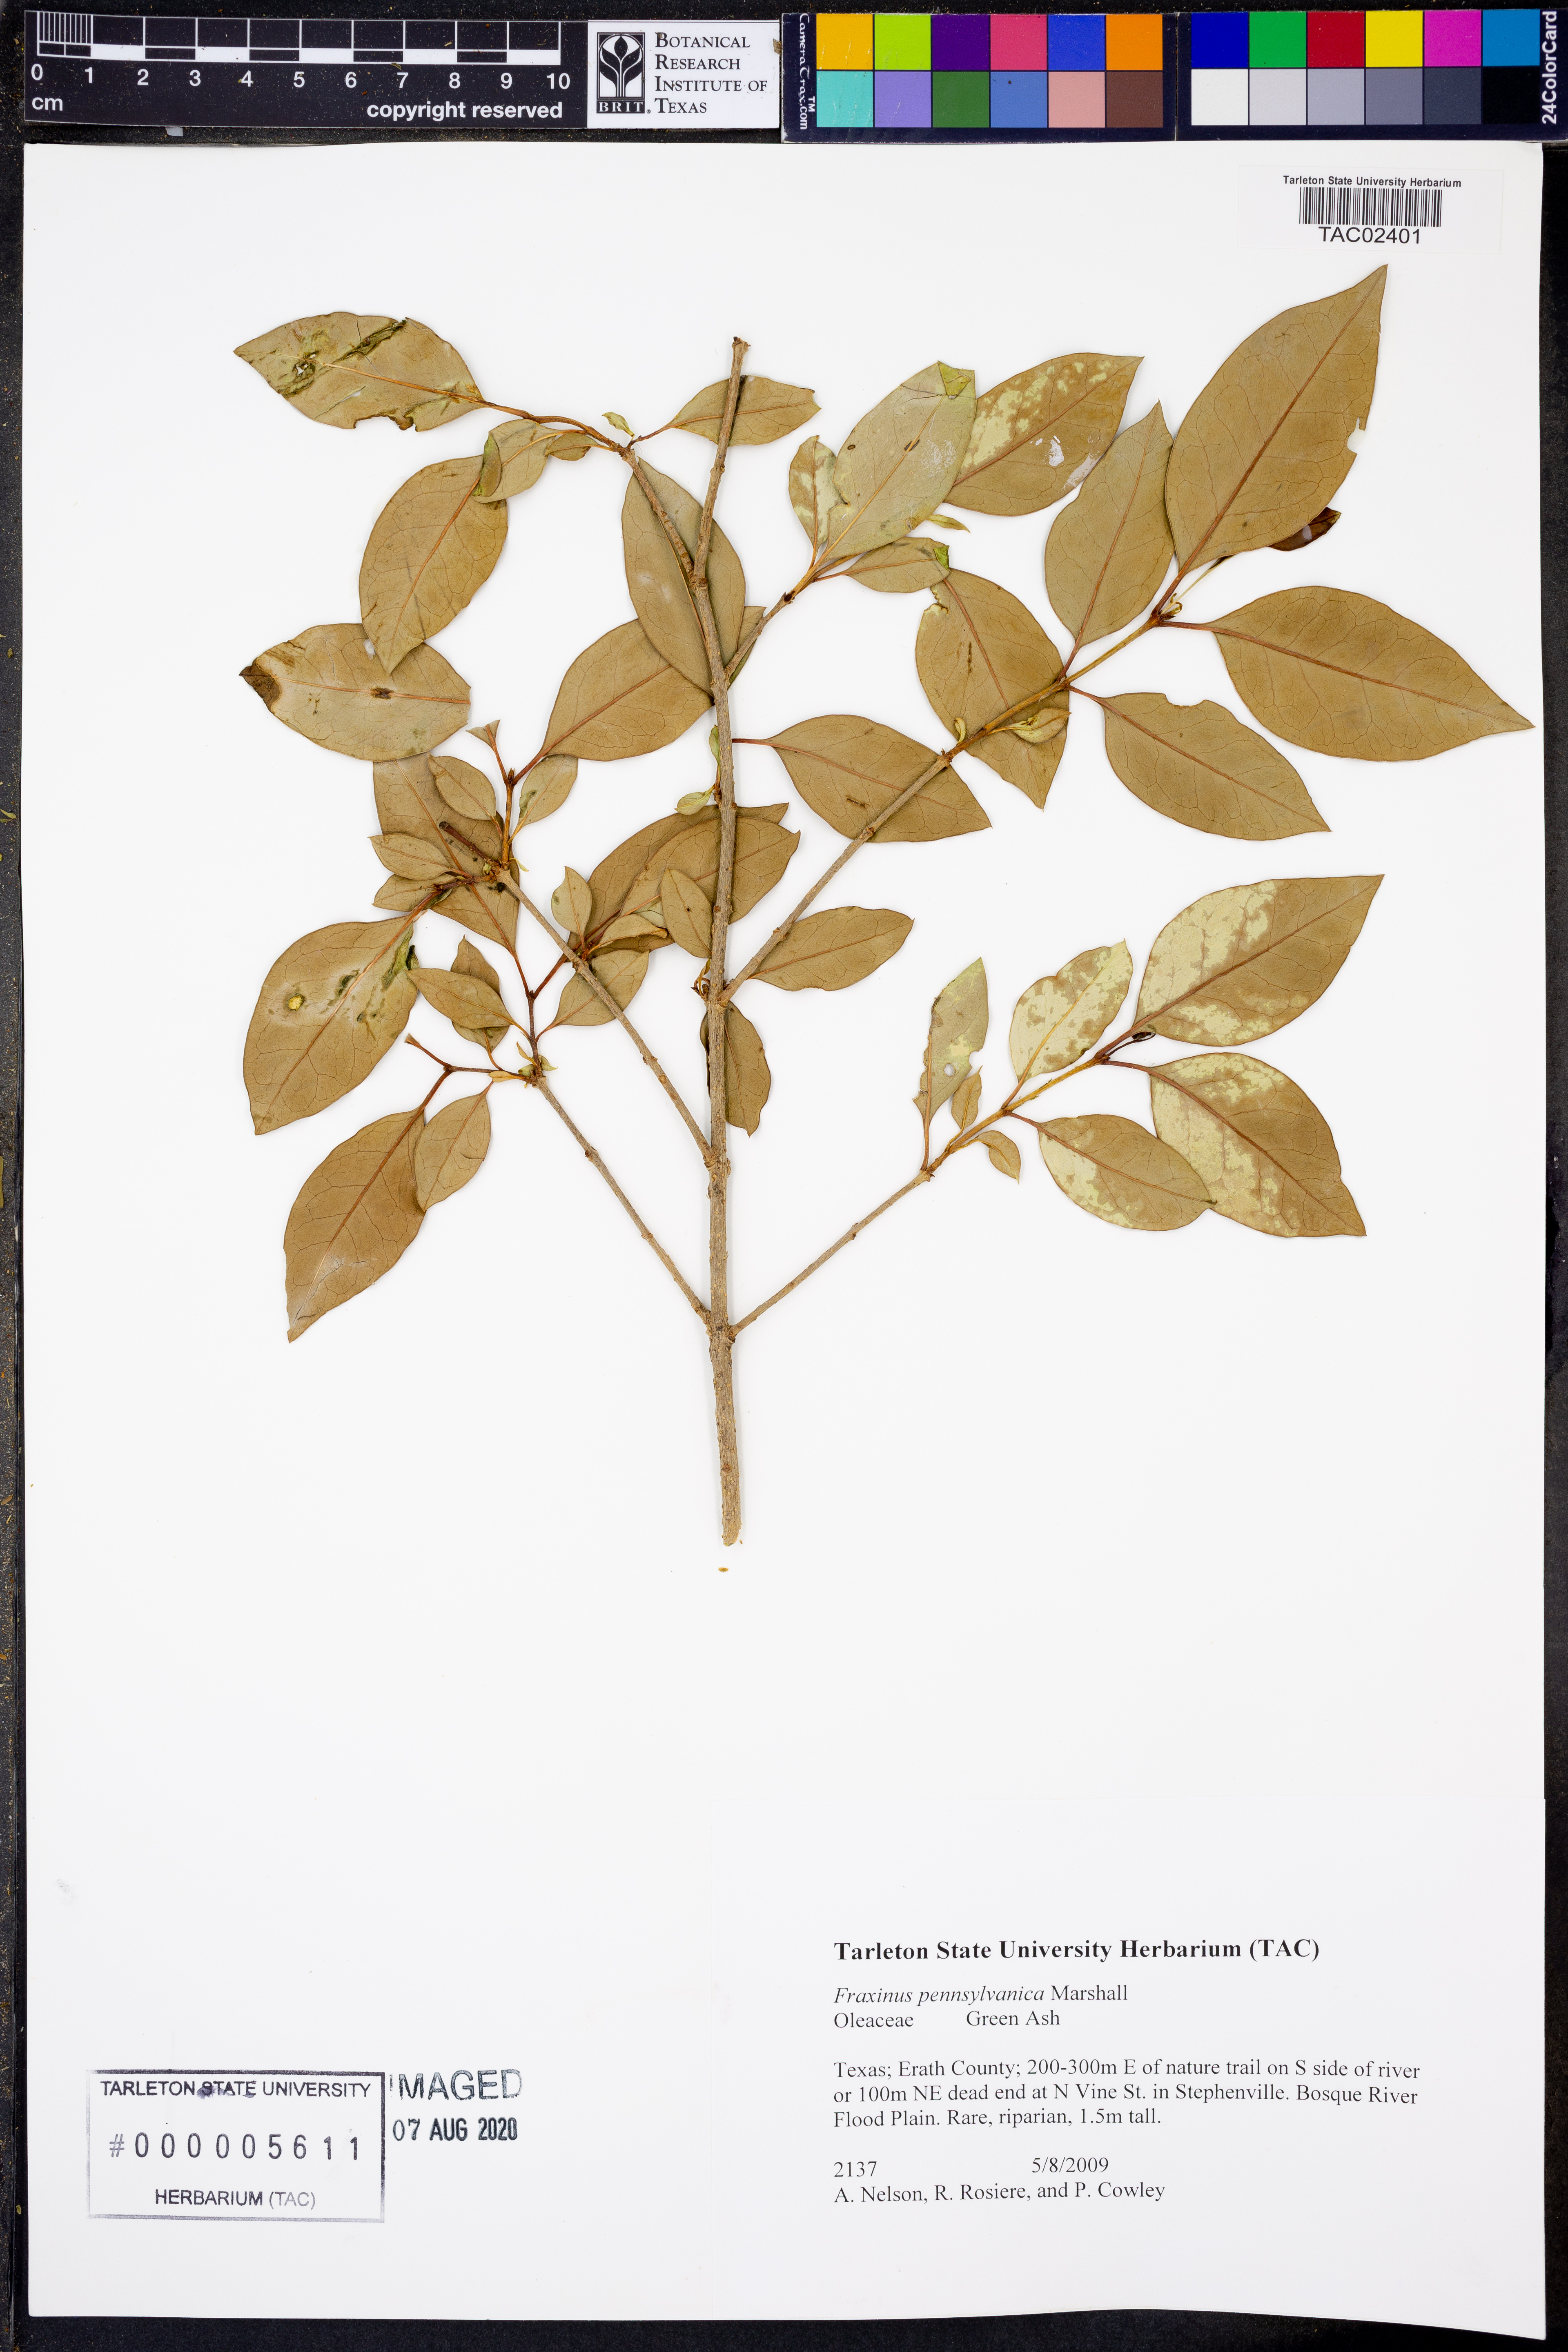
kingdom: Plantae
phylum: Tracheophyta
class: Magnoliopsida
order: Lamiales
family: Oleaceae
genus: Fraxinus
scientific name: Fraxinus pennsylvanica
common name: Green ash
